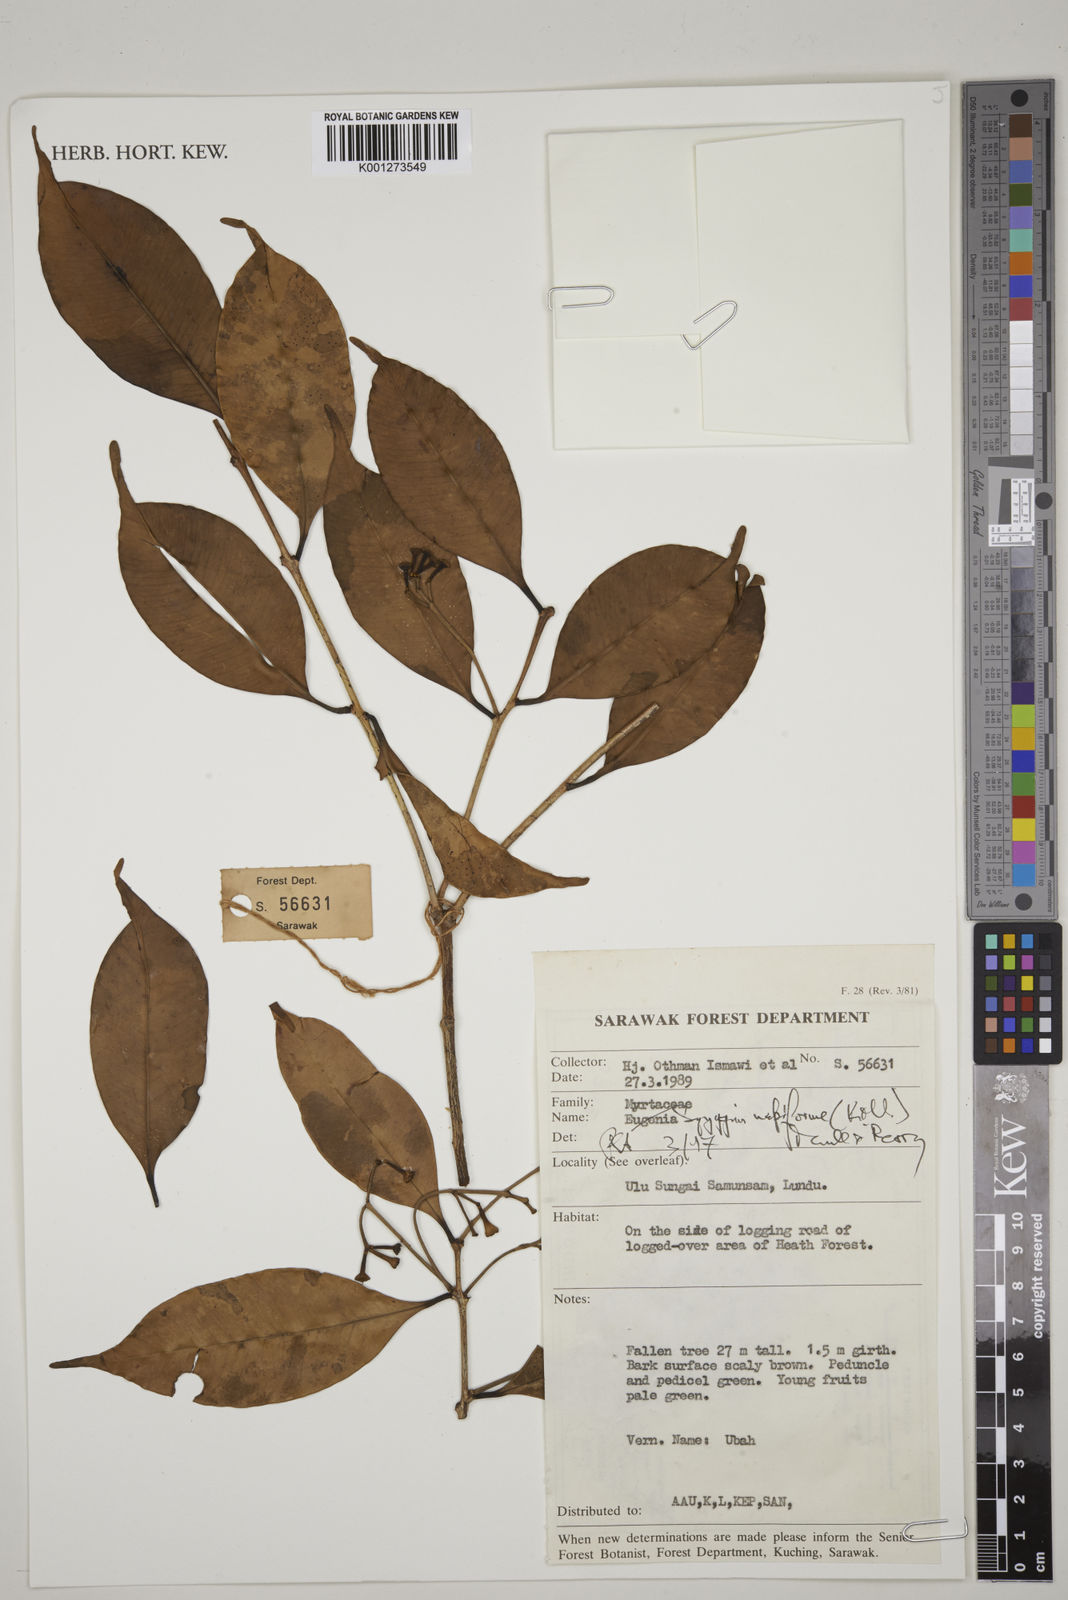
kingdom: Plantae
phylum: Tracheophyta
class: Magnoliopsida
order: Myrtales
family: Myrtaceae
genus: Syzygium
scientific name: Syzygium napiforme
